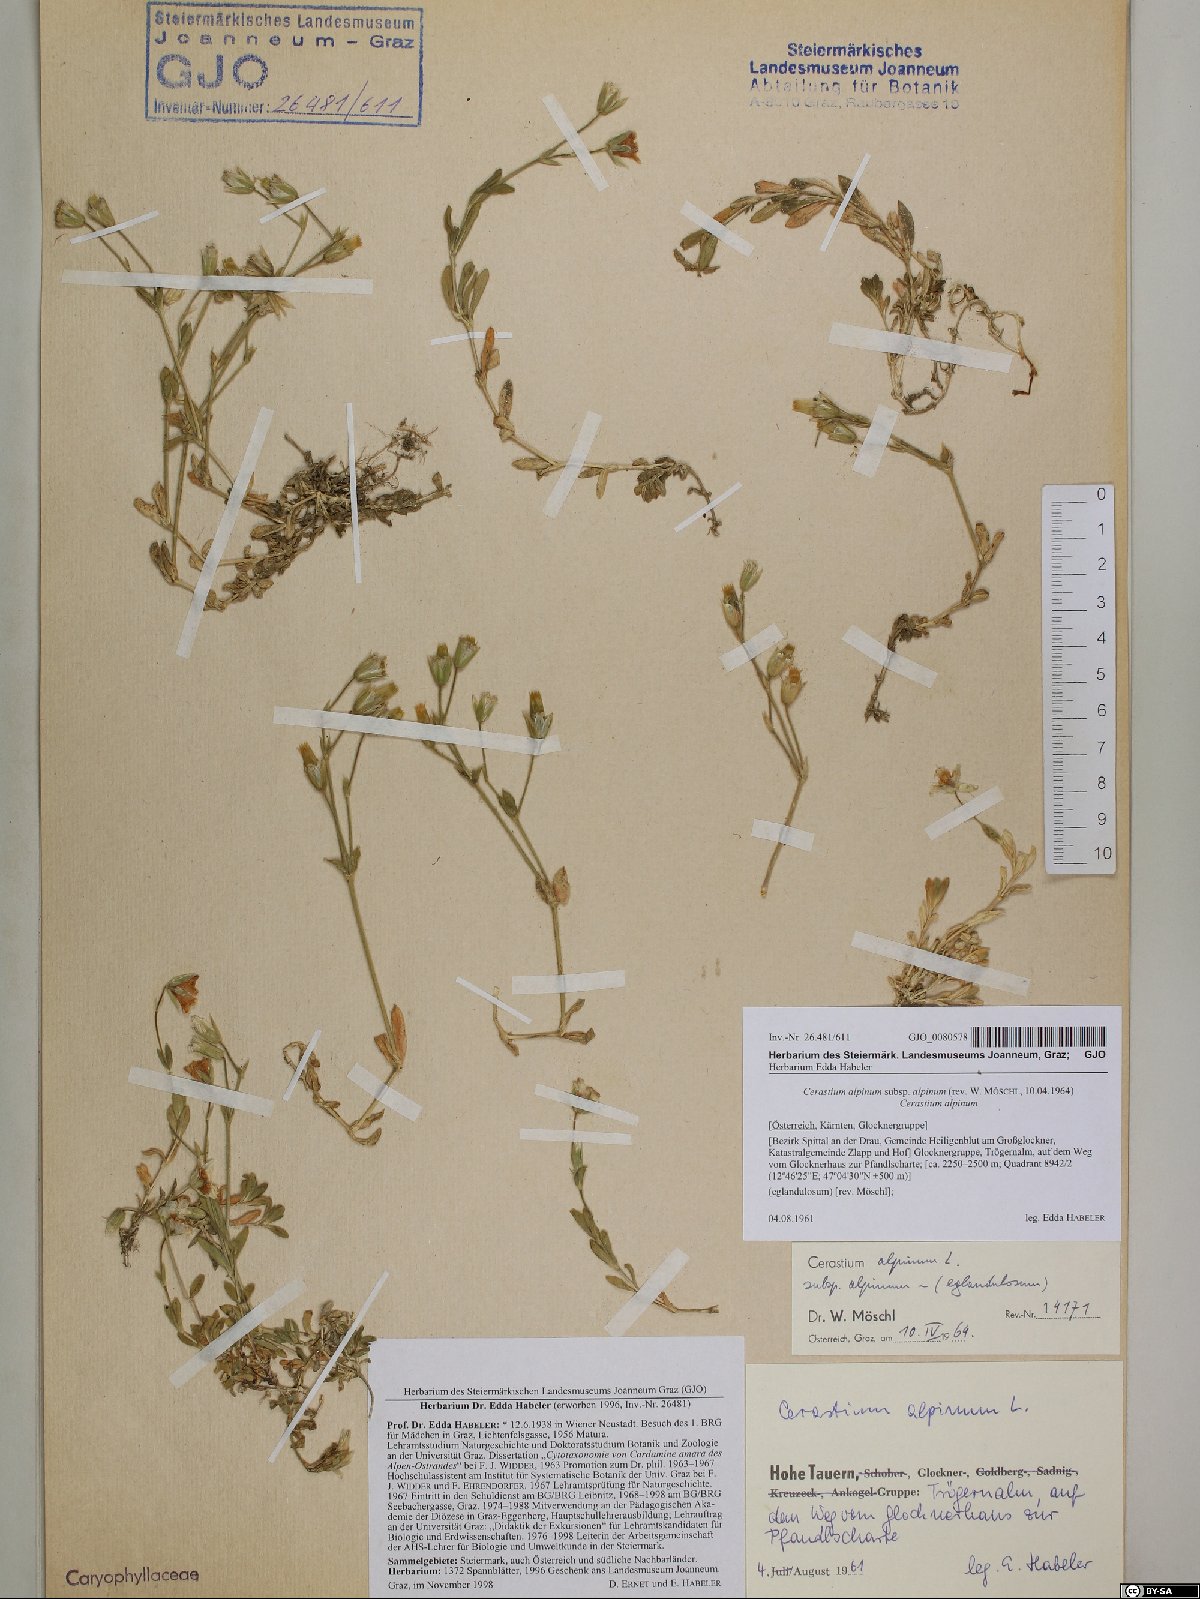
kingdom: Plantae
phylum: Tracheophyta
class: Magnoliopsida
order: Caryophyllales
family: Caryophyllaceae
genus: Cerastium
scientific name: Cerastium alpinum
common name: Alpine mouse-ear
